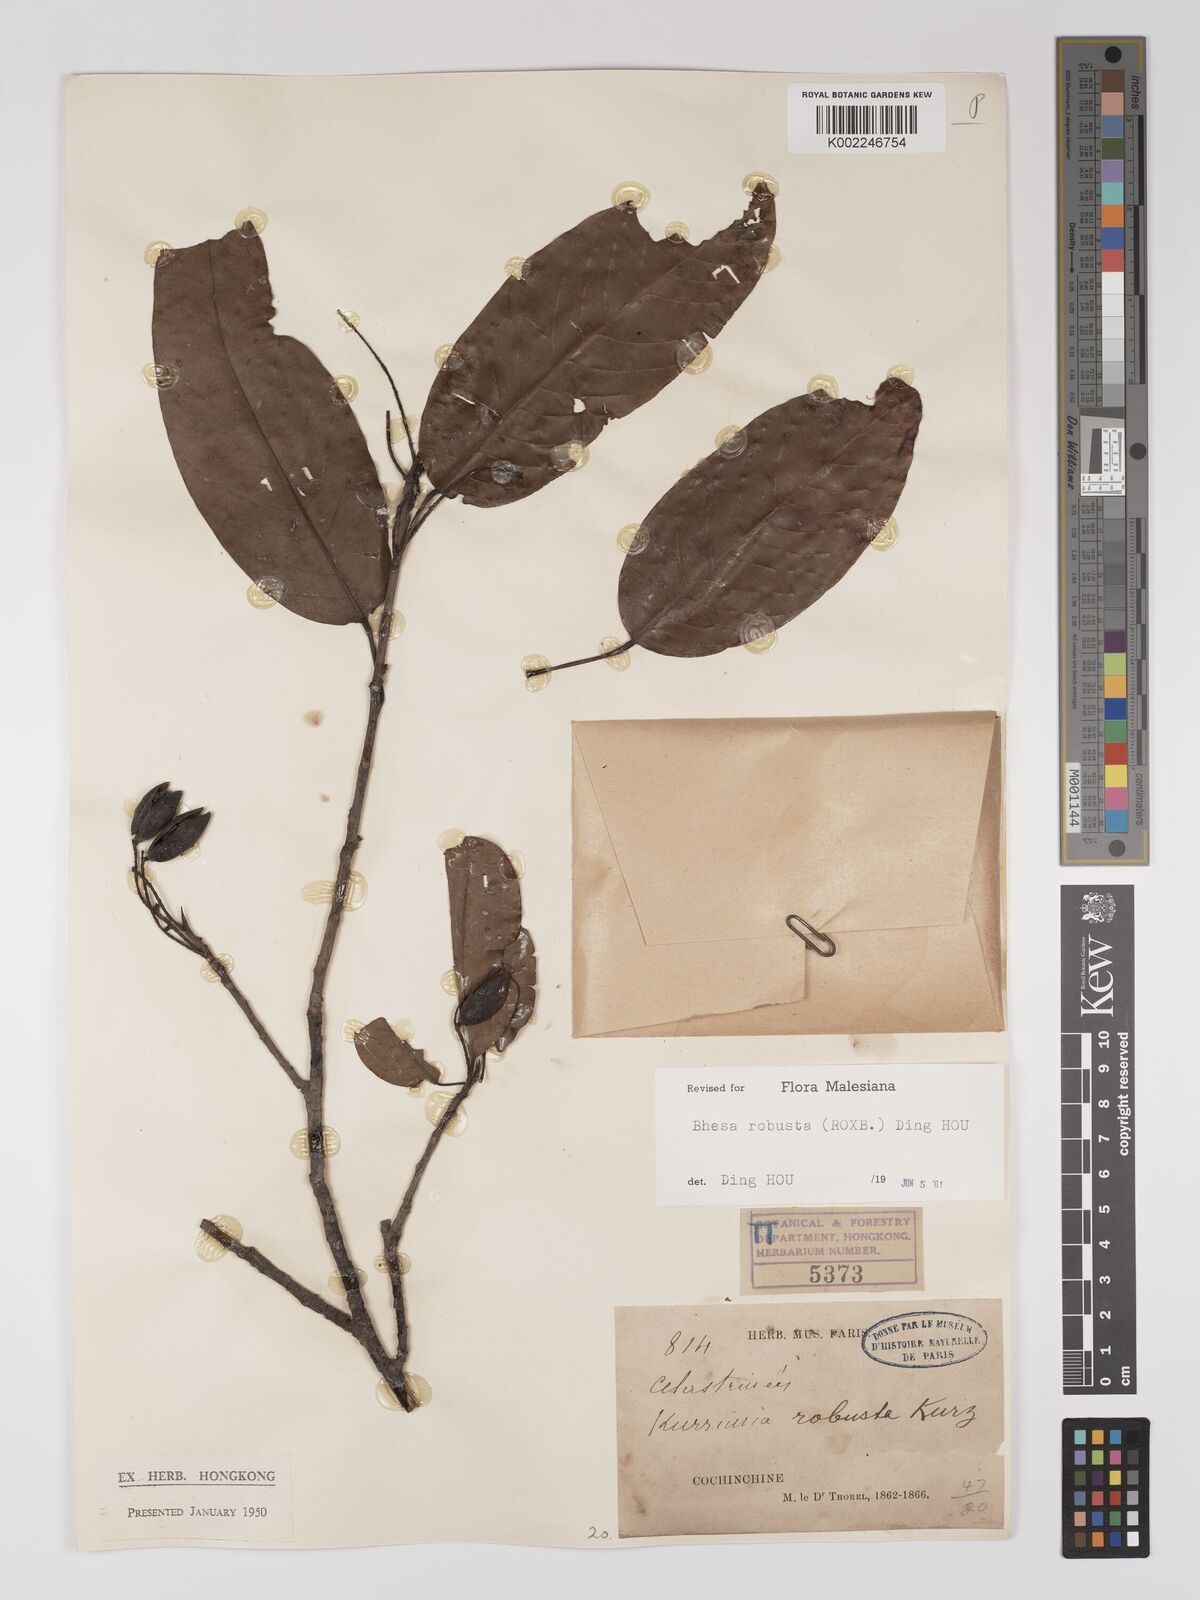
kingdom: Plantae
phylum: Tracheophyta
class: Magnoliopsida
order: Malpighiales
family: Centroplacaceae
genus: Bhesa
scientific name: Bhesa robusta
